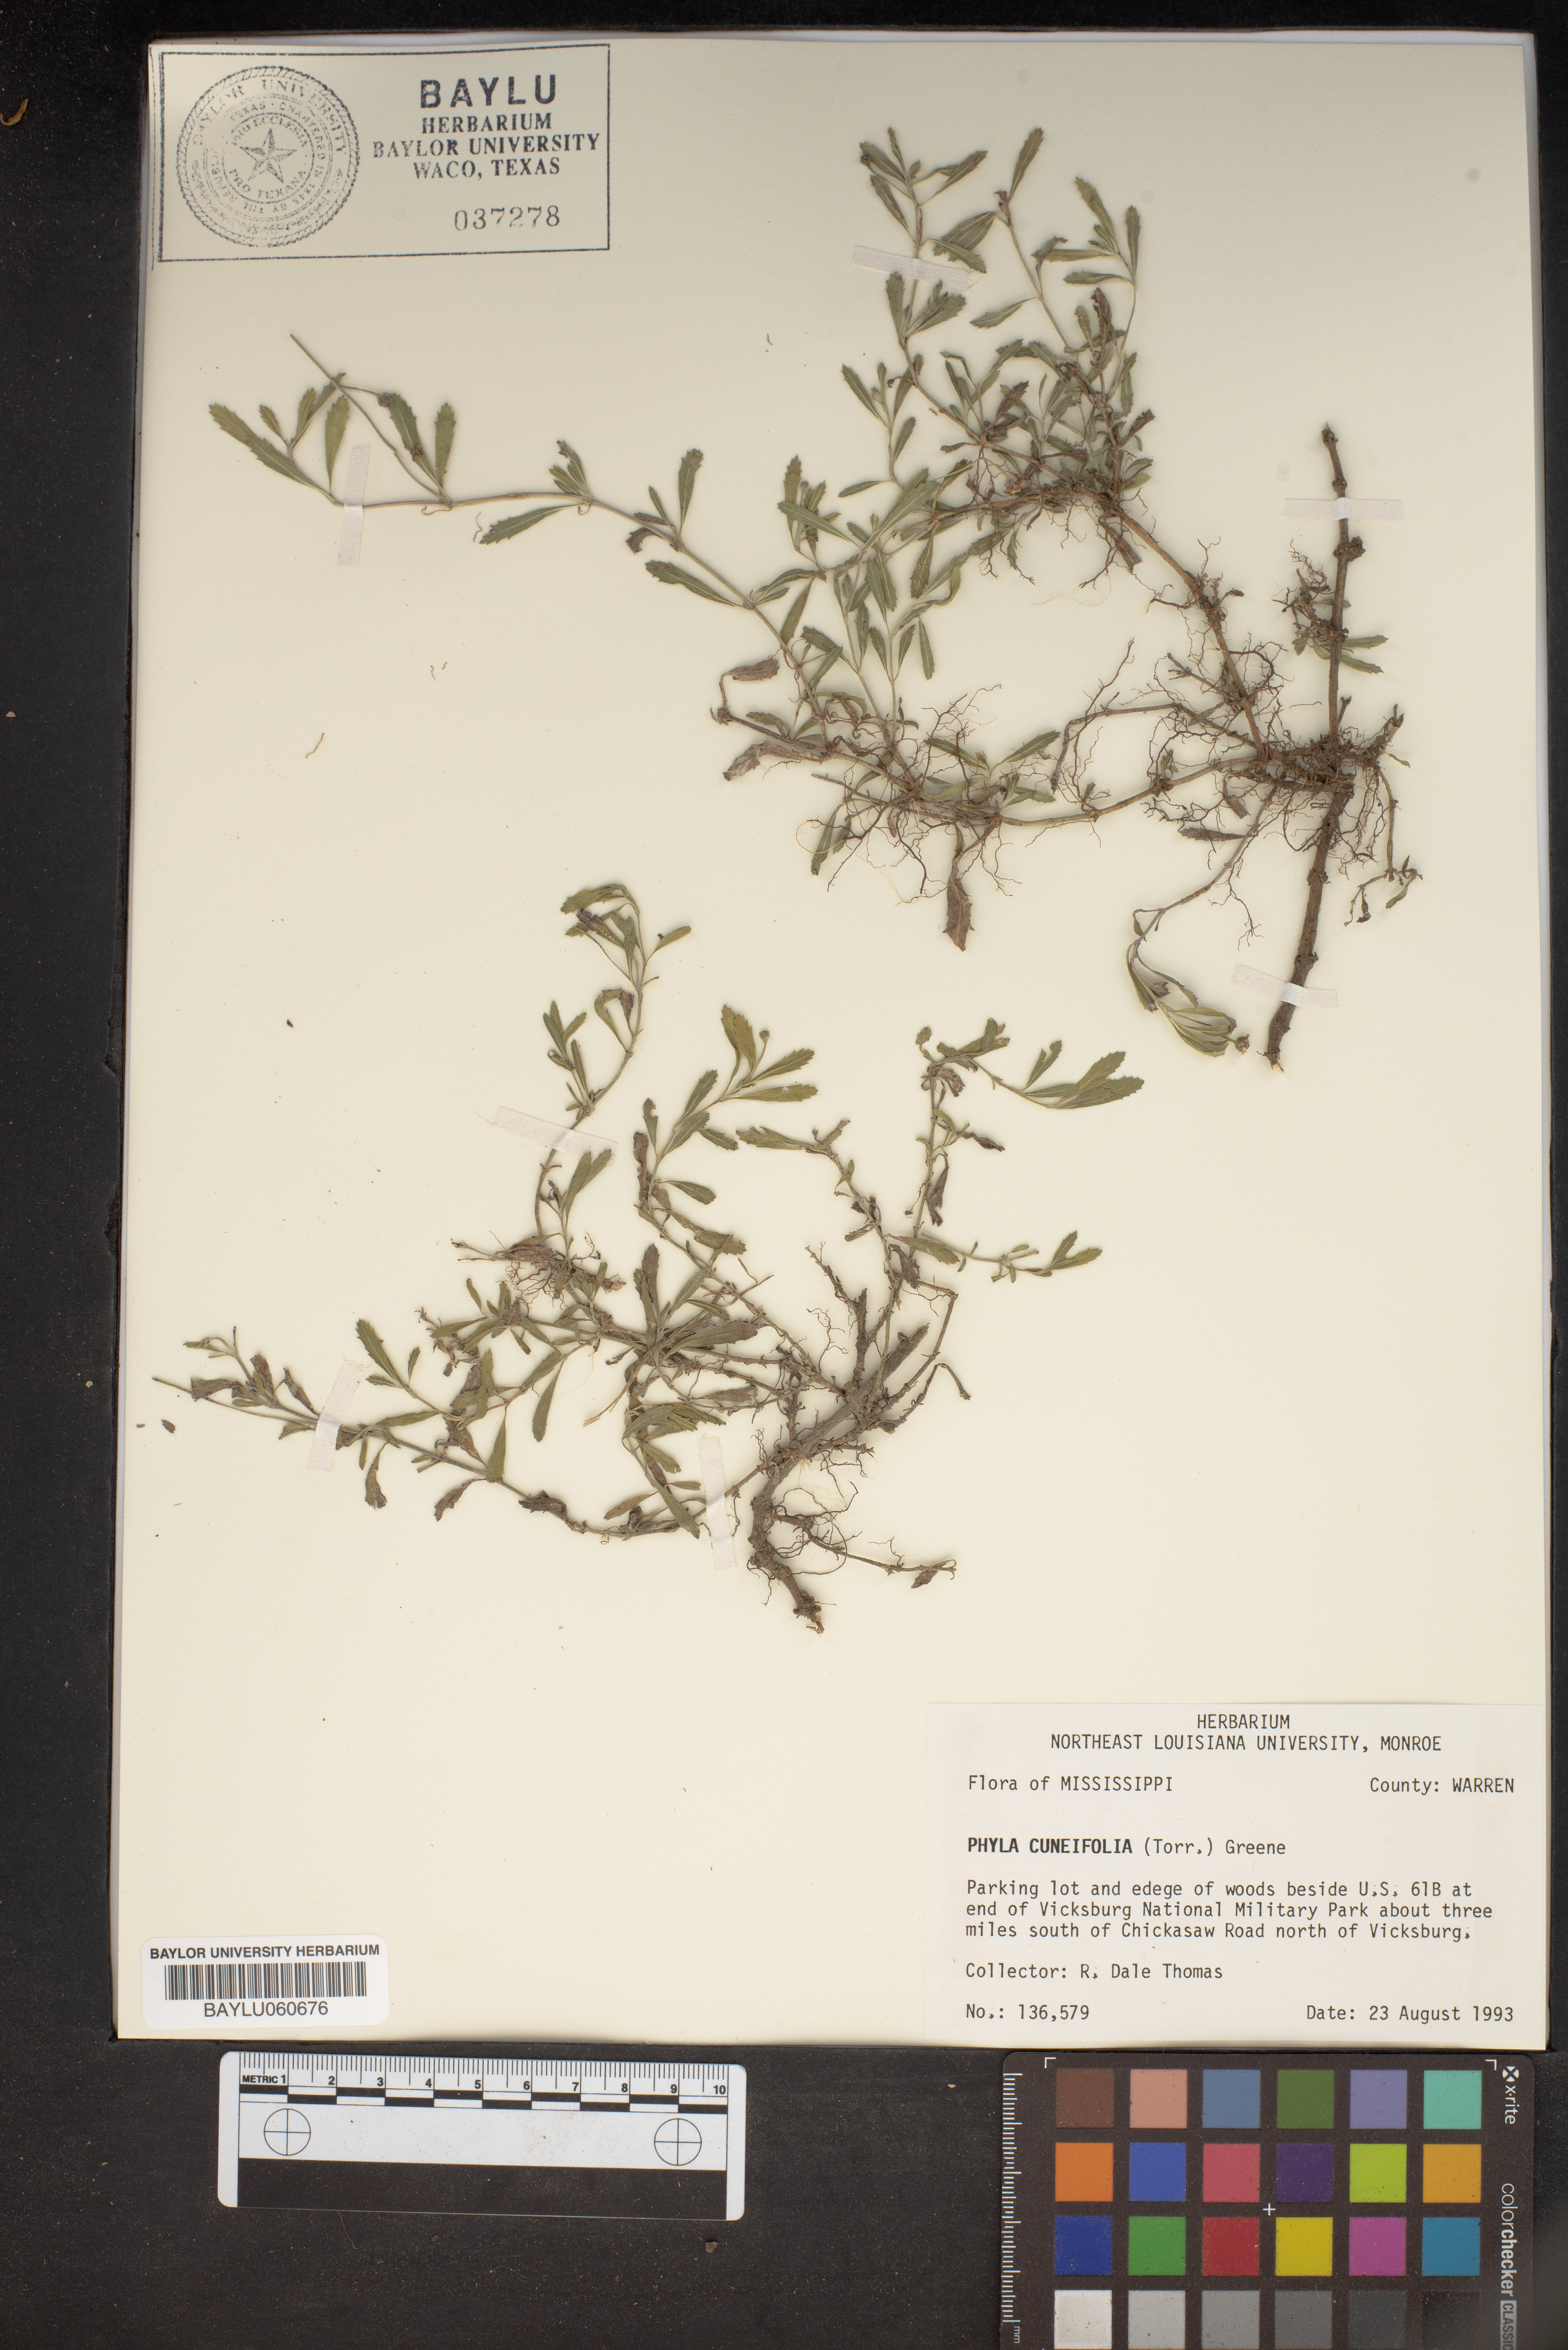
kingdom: Plantae
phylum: Tracheophyta
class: Magnoliopsida
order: Lamiales
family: Verbenaceae
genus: Phyla
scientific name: Phyla cuneifolia
